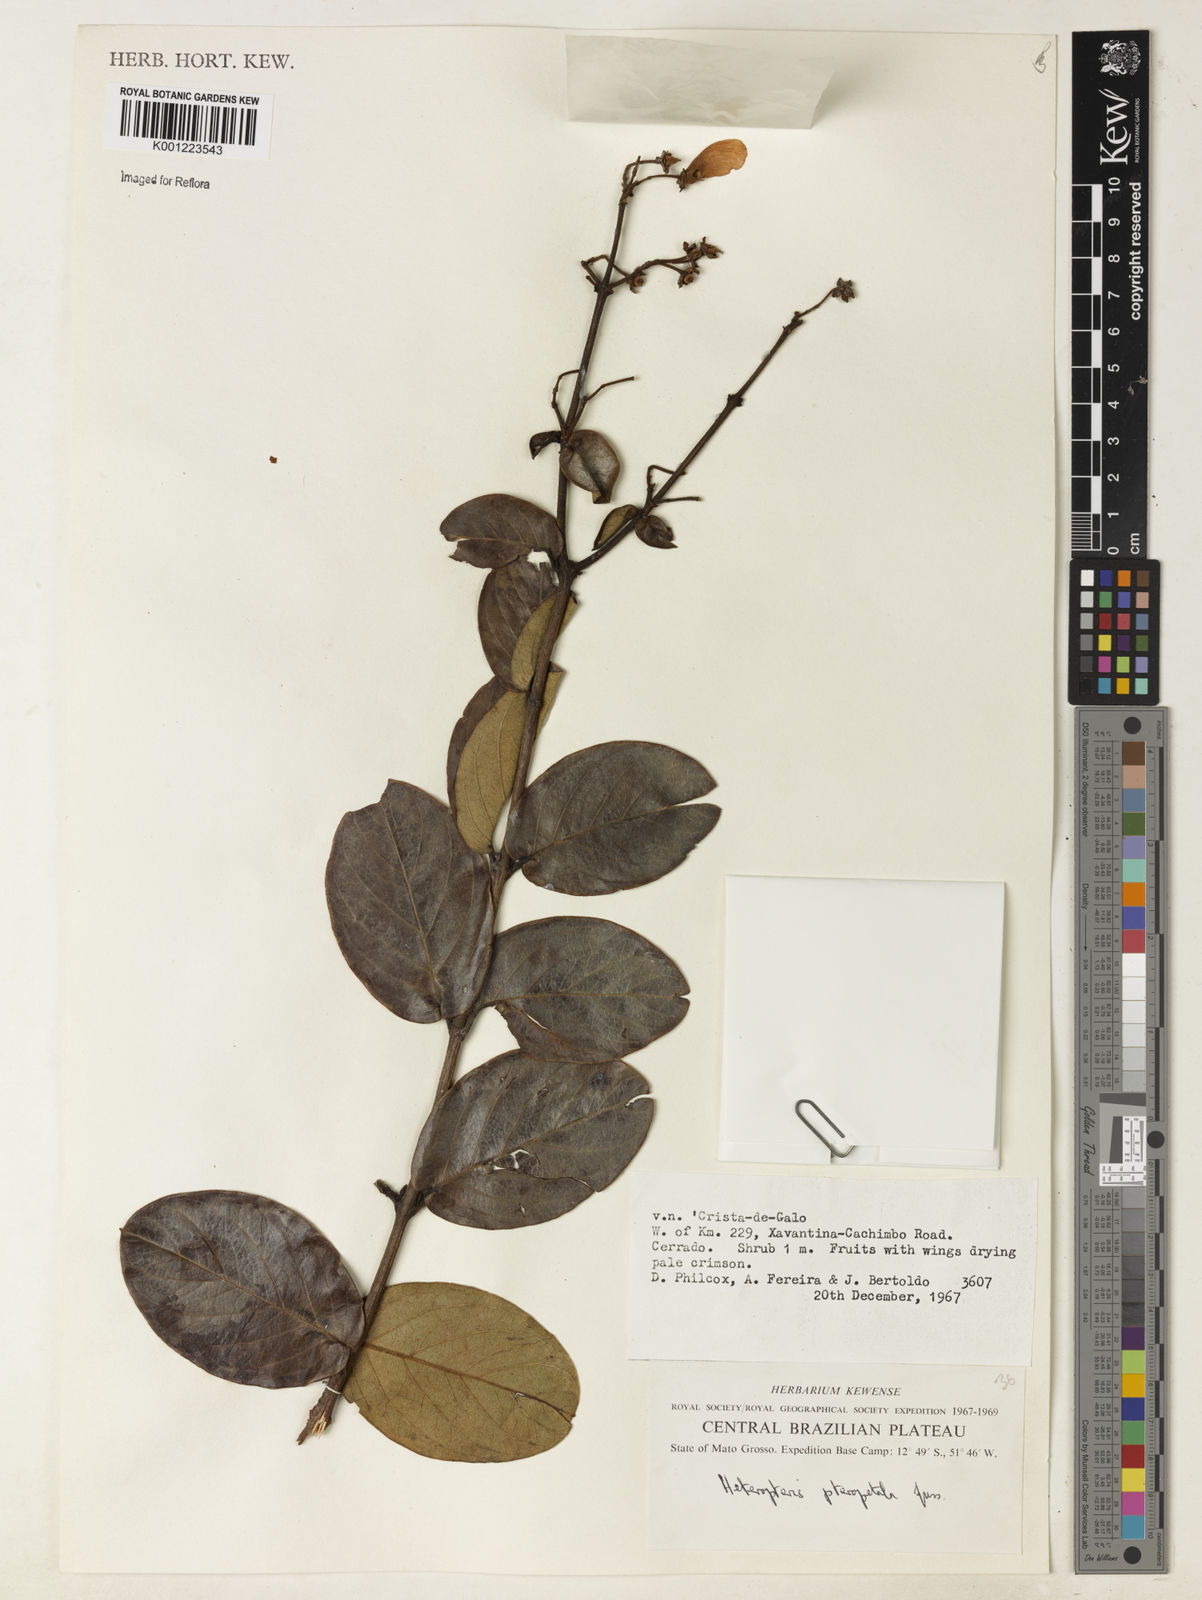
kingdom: Plantae
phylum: Tracheophyta
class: Magnoliopsida
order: Malpighiales
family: Malpighiaceae
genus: Heteropterys
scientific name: Heteropterys pteropetala
